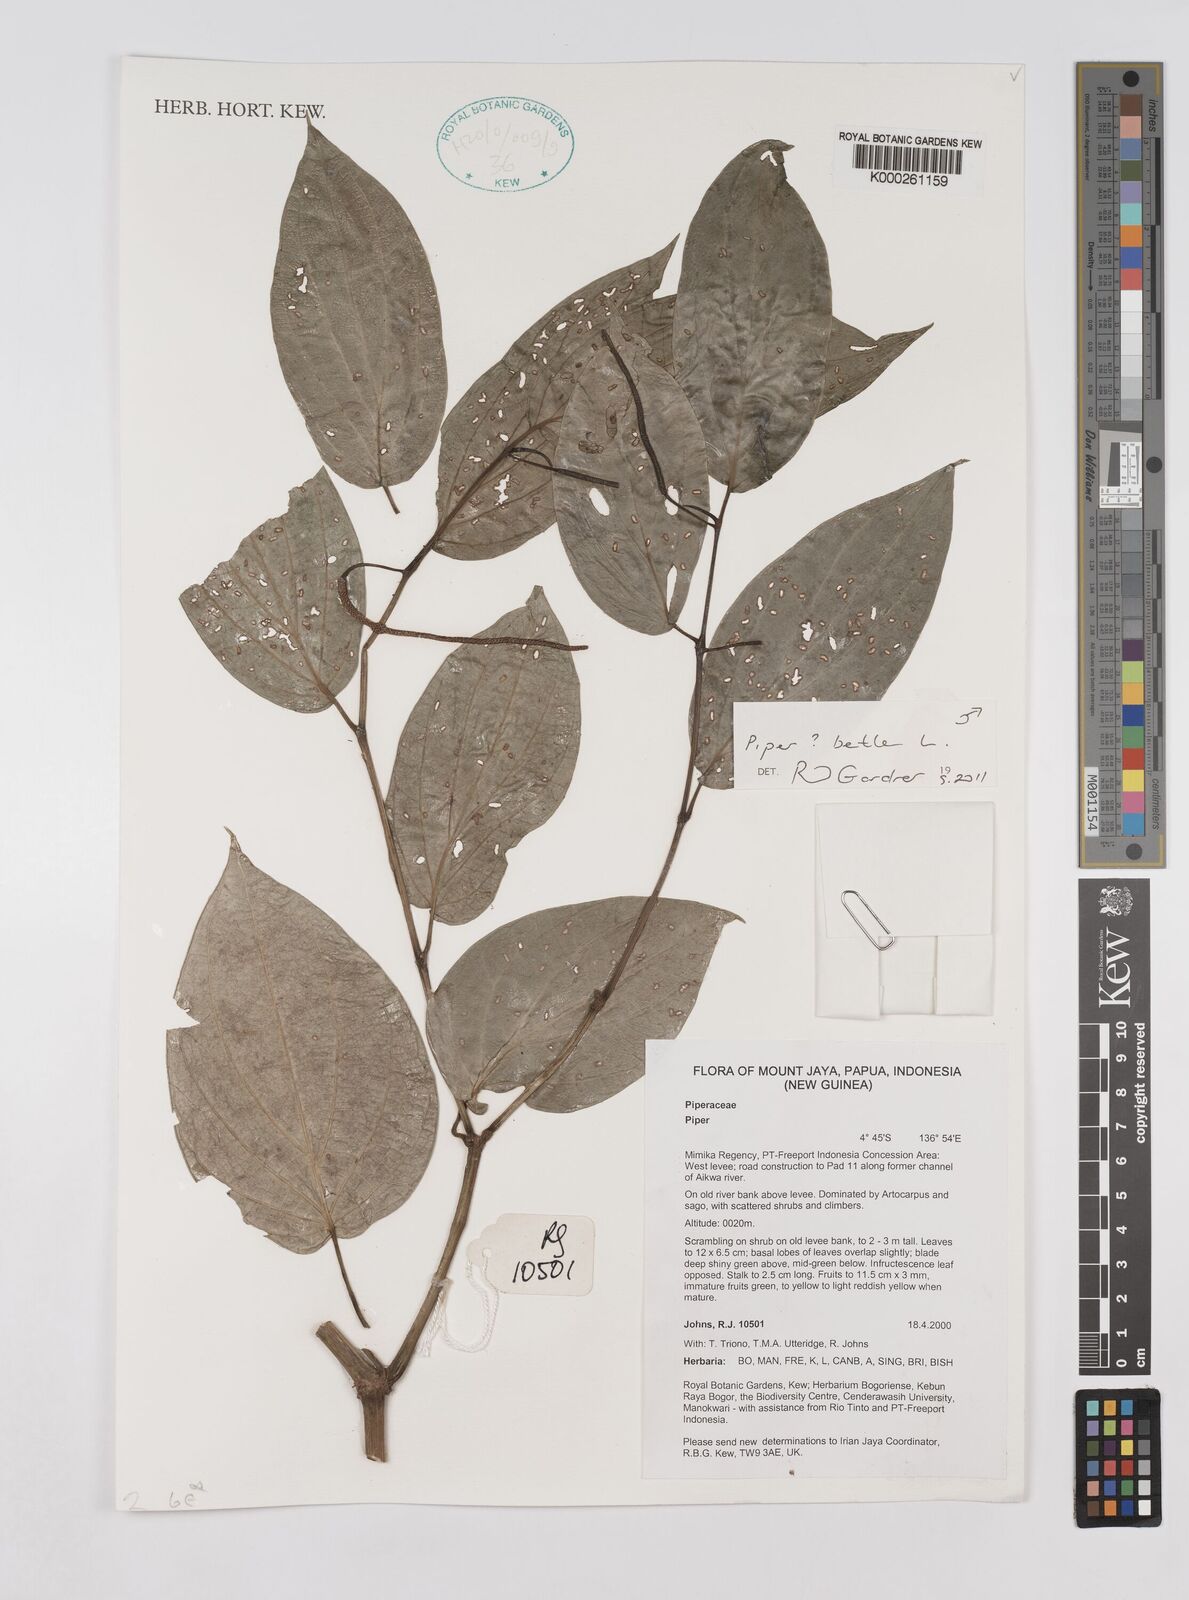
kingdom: Plantae
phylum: Tracheophyta
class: Magnoliopsida
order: Piperales
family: Piperaceae
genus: Piper
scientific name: Piper
